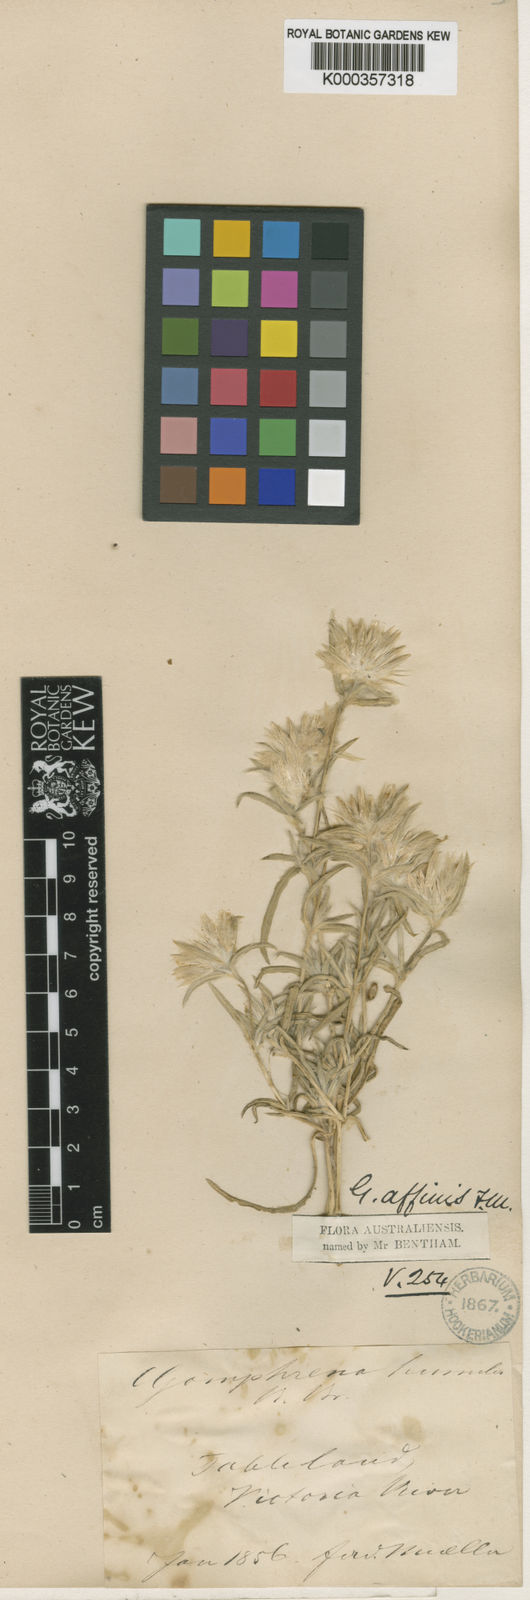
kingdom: Plantae
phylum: Tracheophyta
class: Magnoliopsida
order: Caryophyllales
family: Amaranthaceae
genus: Gomphrena
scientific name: Gomphrena humilis
